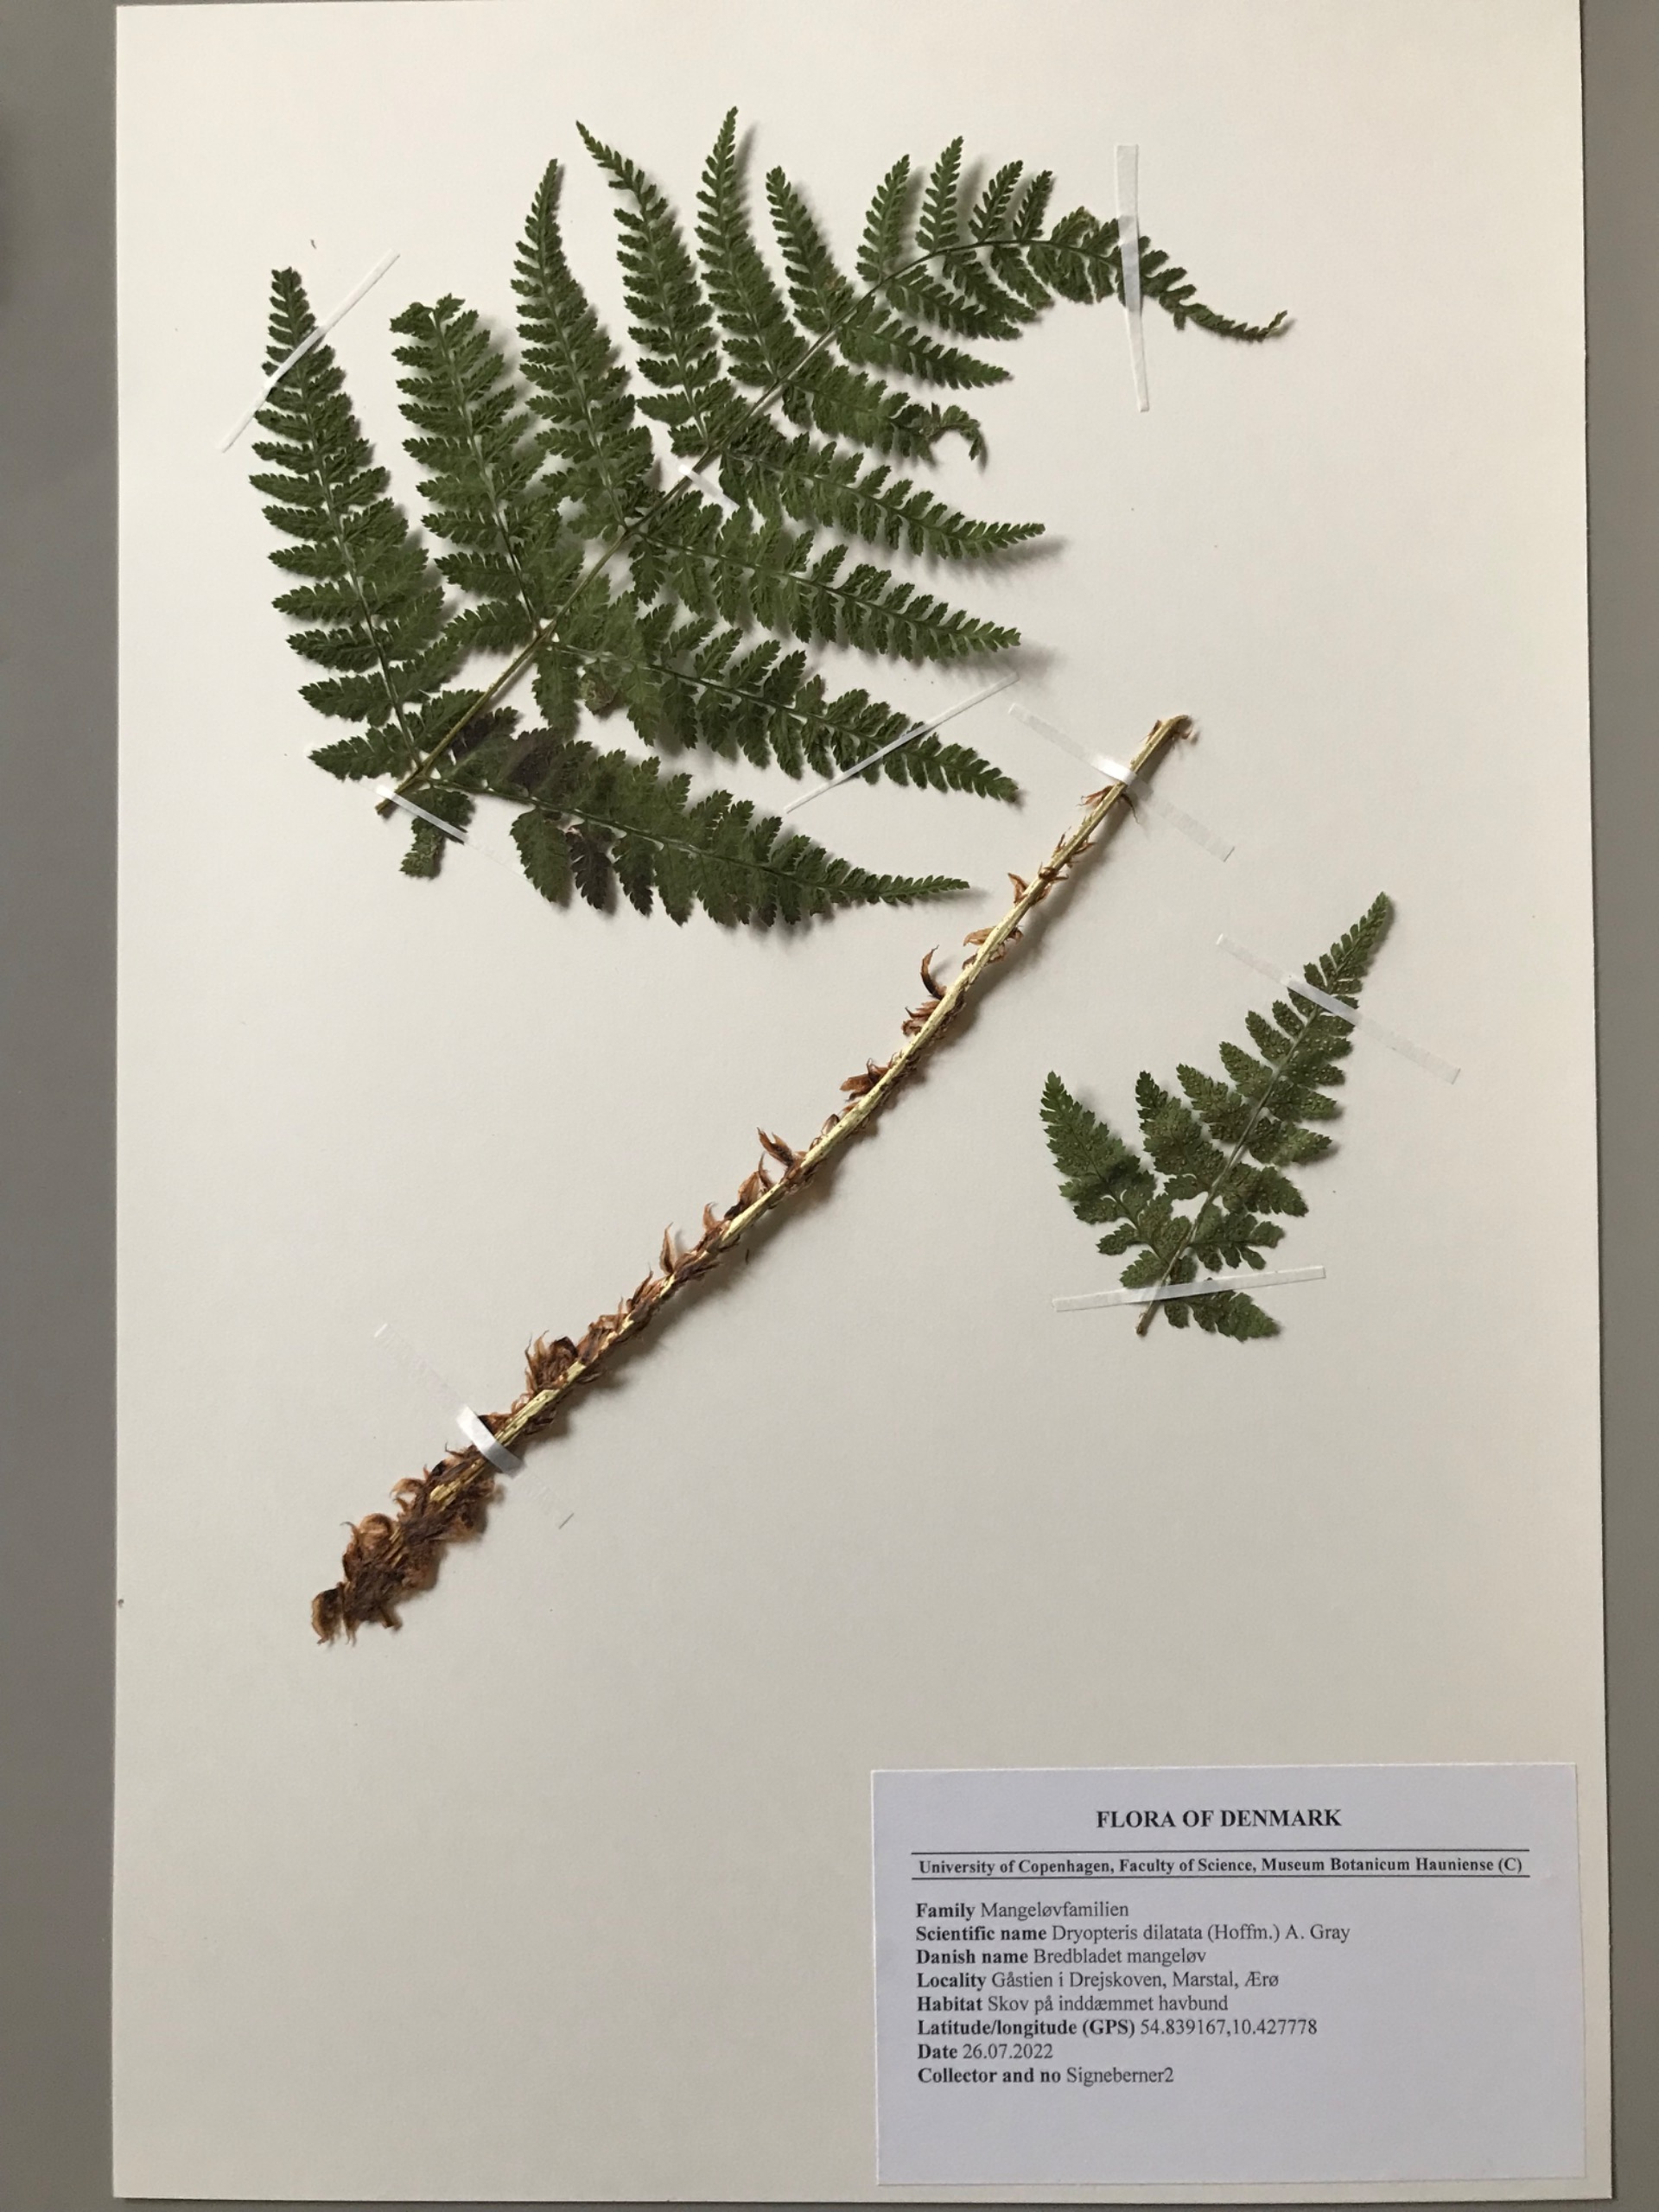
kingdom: Plantae
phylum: Tracheophyta
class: Polypodiopsida
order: Polypodiales
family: Dryopteridaceae
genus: Dryopteris
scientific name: Dryopteris dilatata
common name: Bredbladet mangeløv
